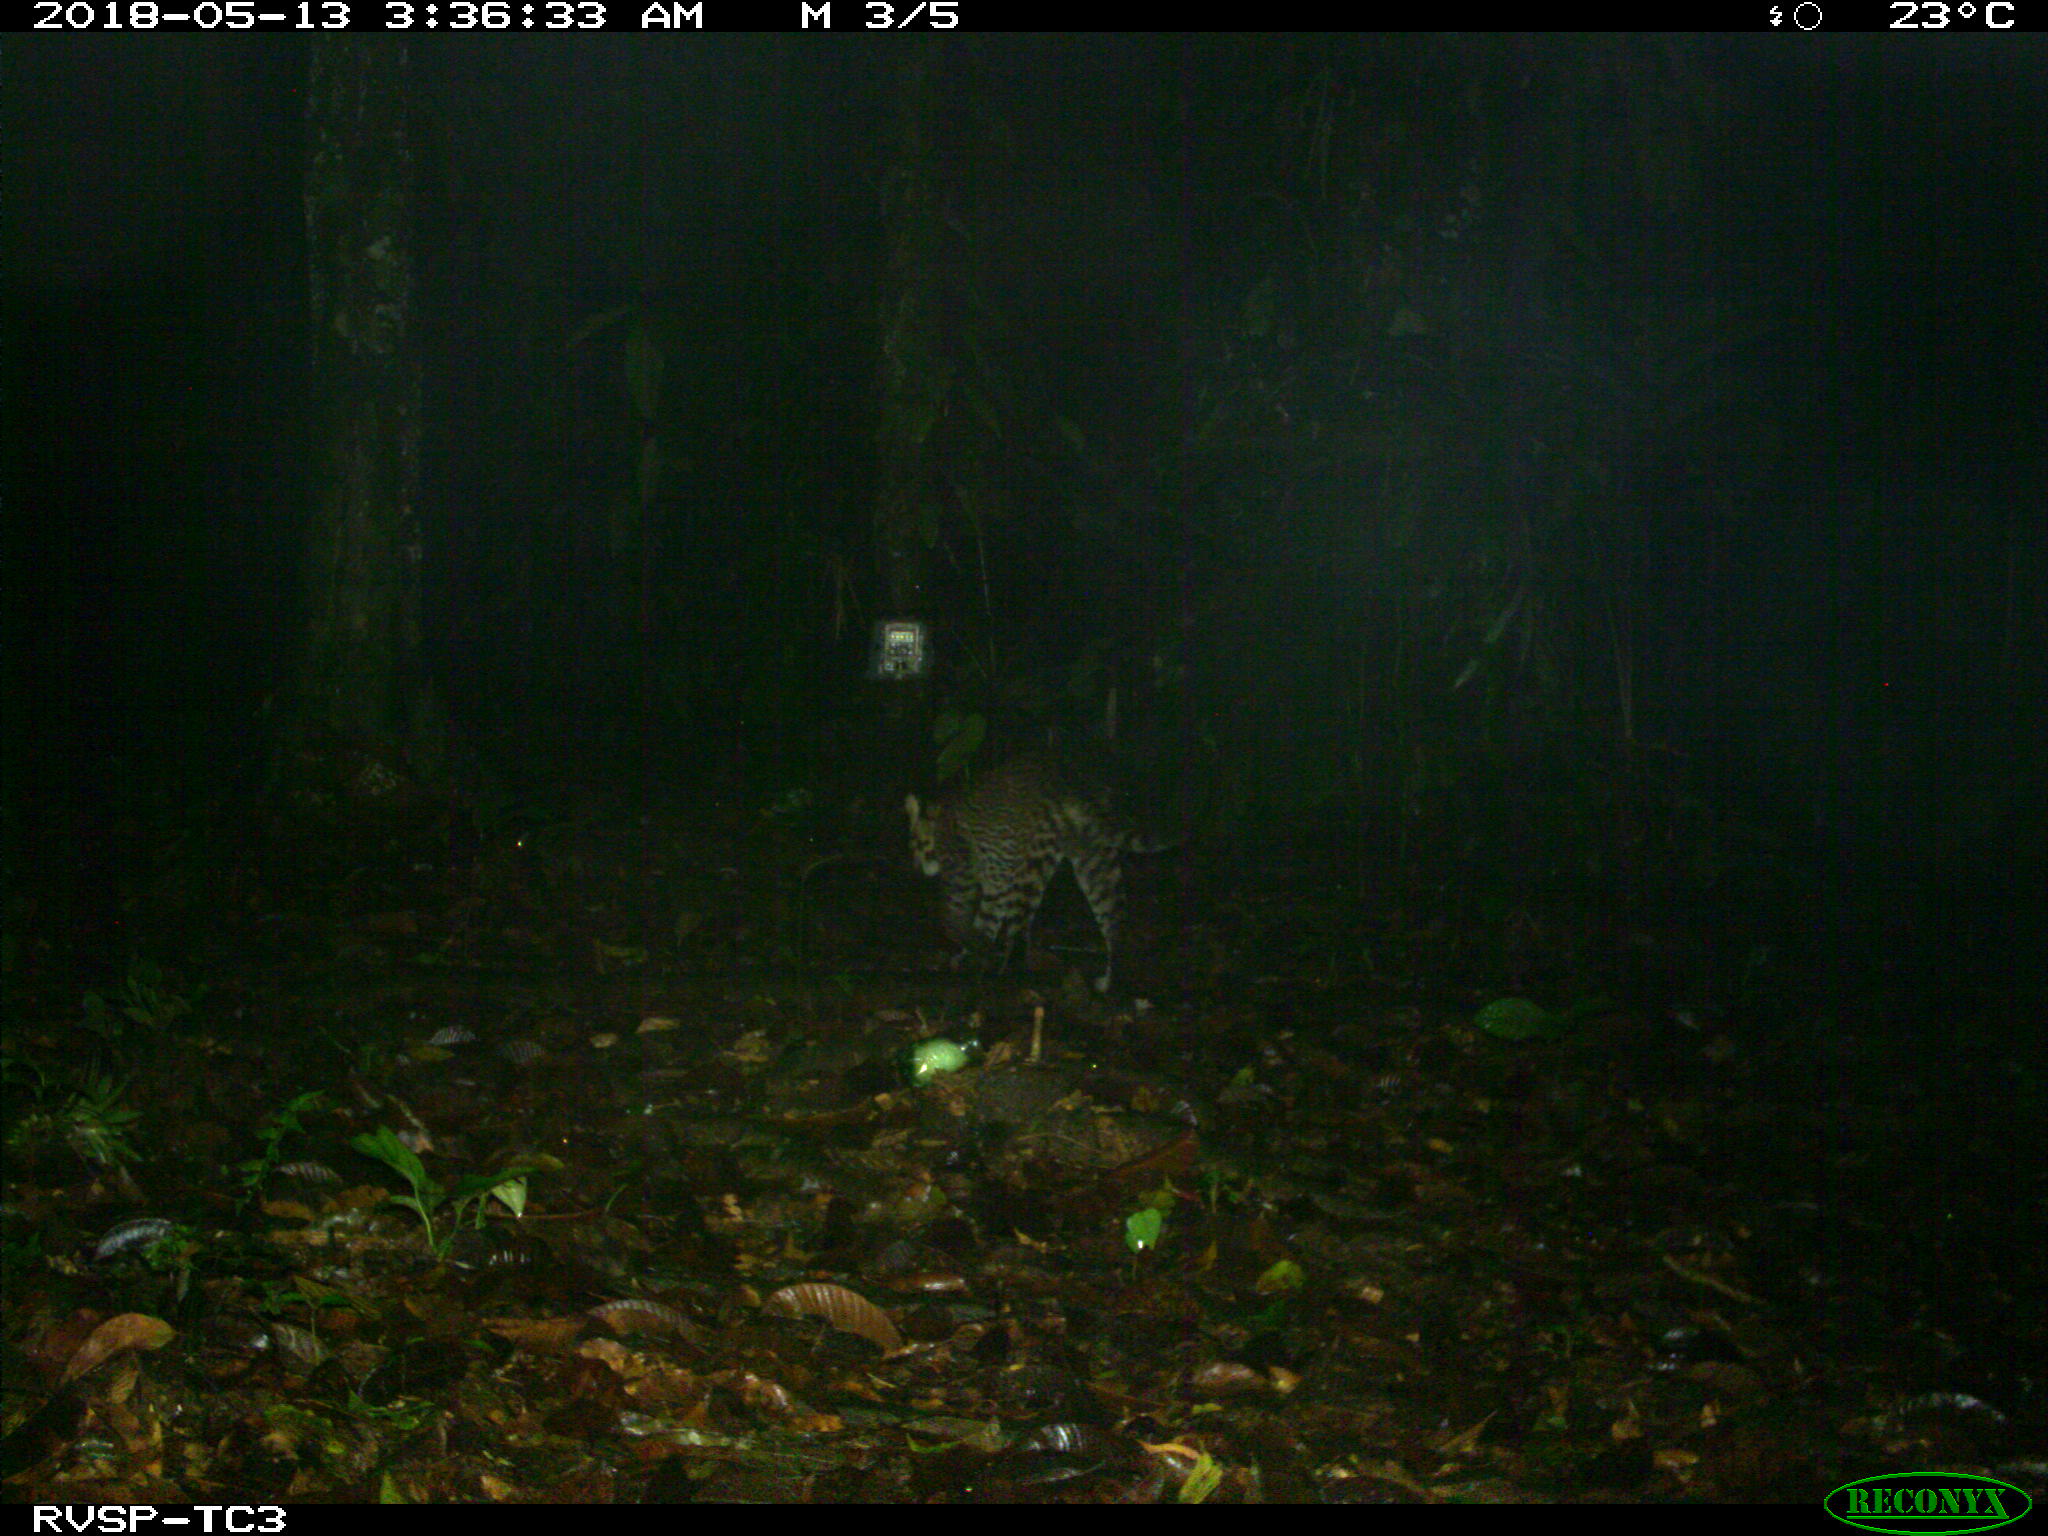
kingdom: Animalia
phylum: Chordata
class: Mammalia
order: Carnivora
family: Felidae
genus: Leopardus
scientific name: Leopardus pardalis
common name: Ocelot
